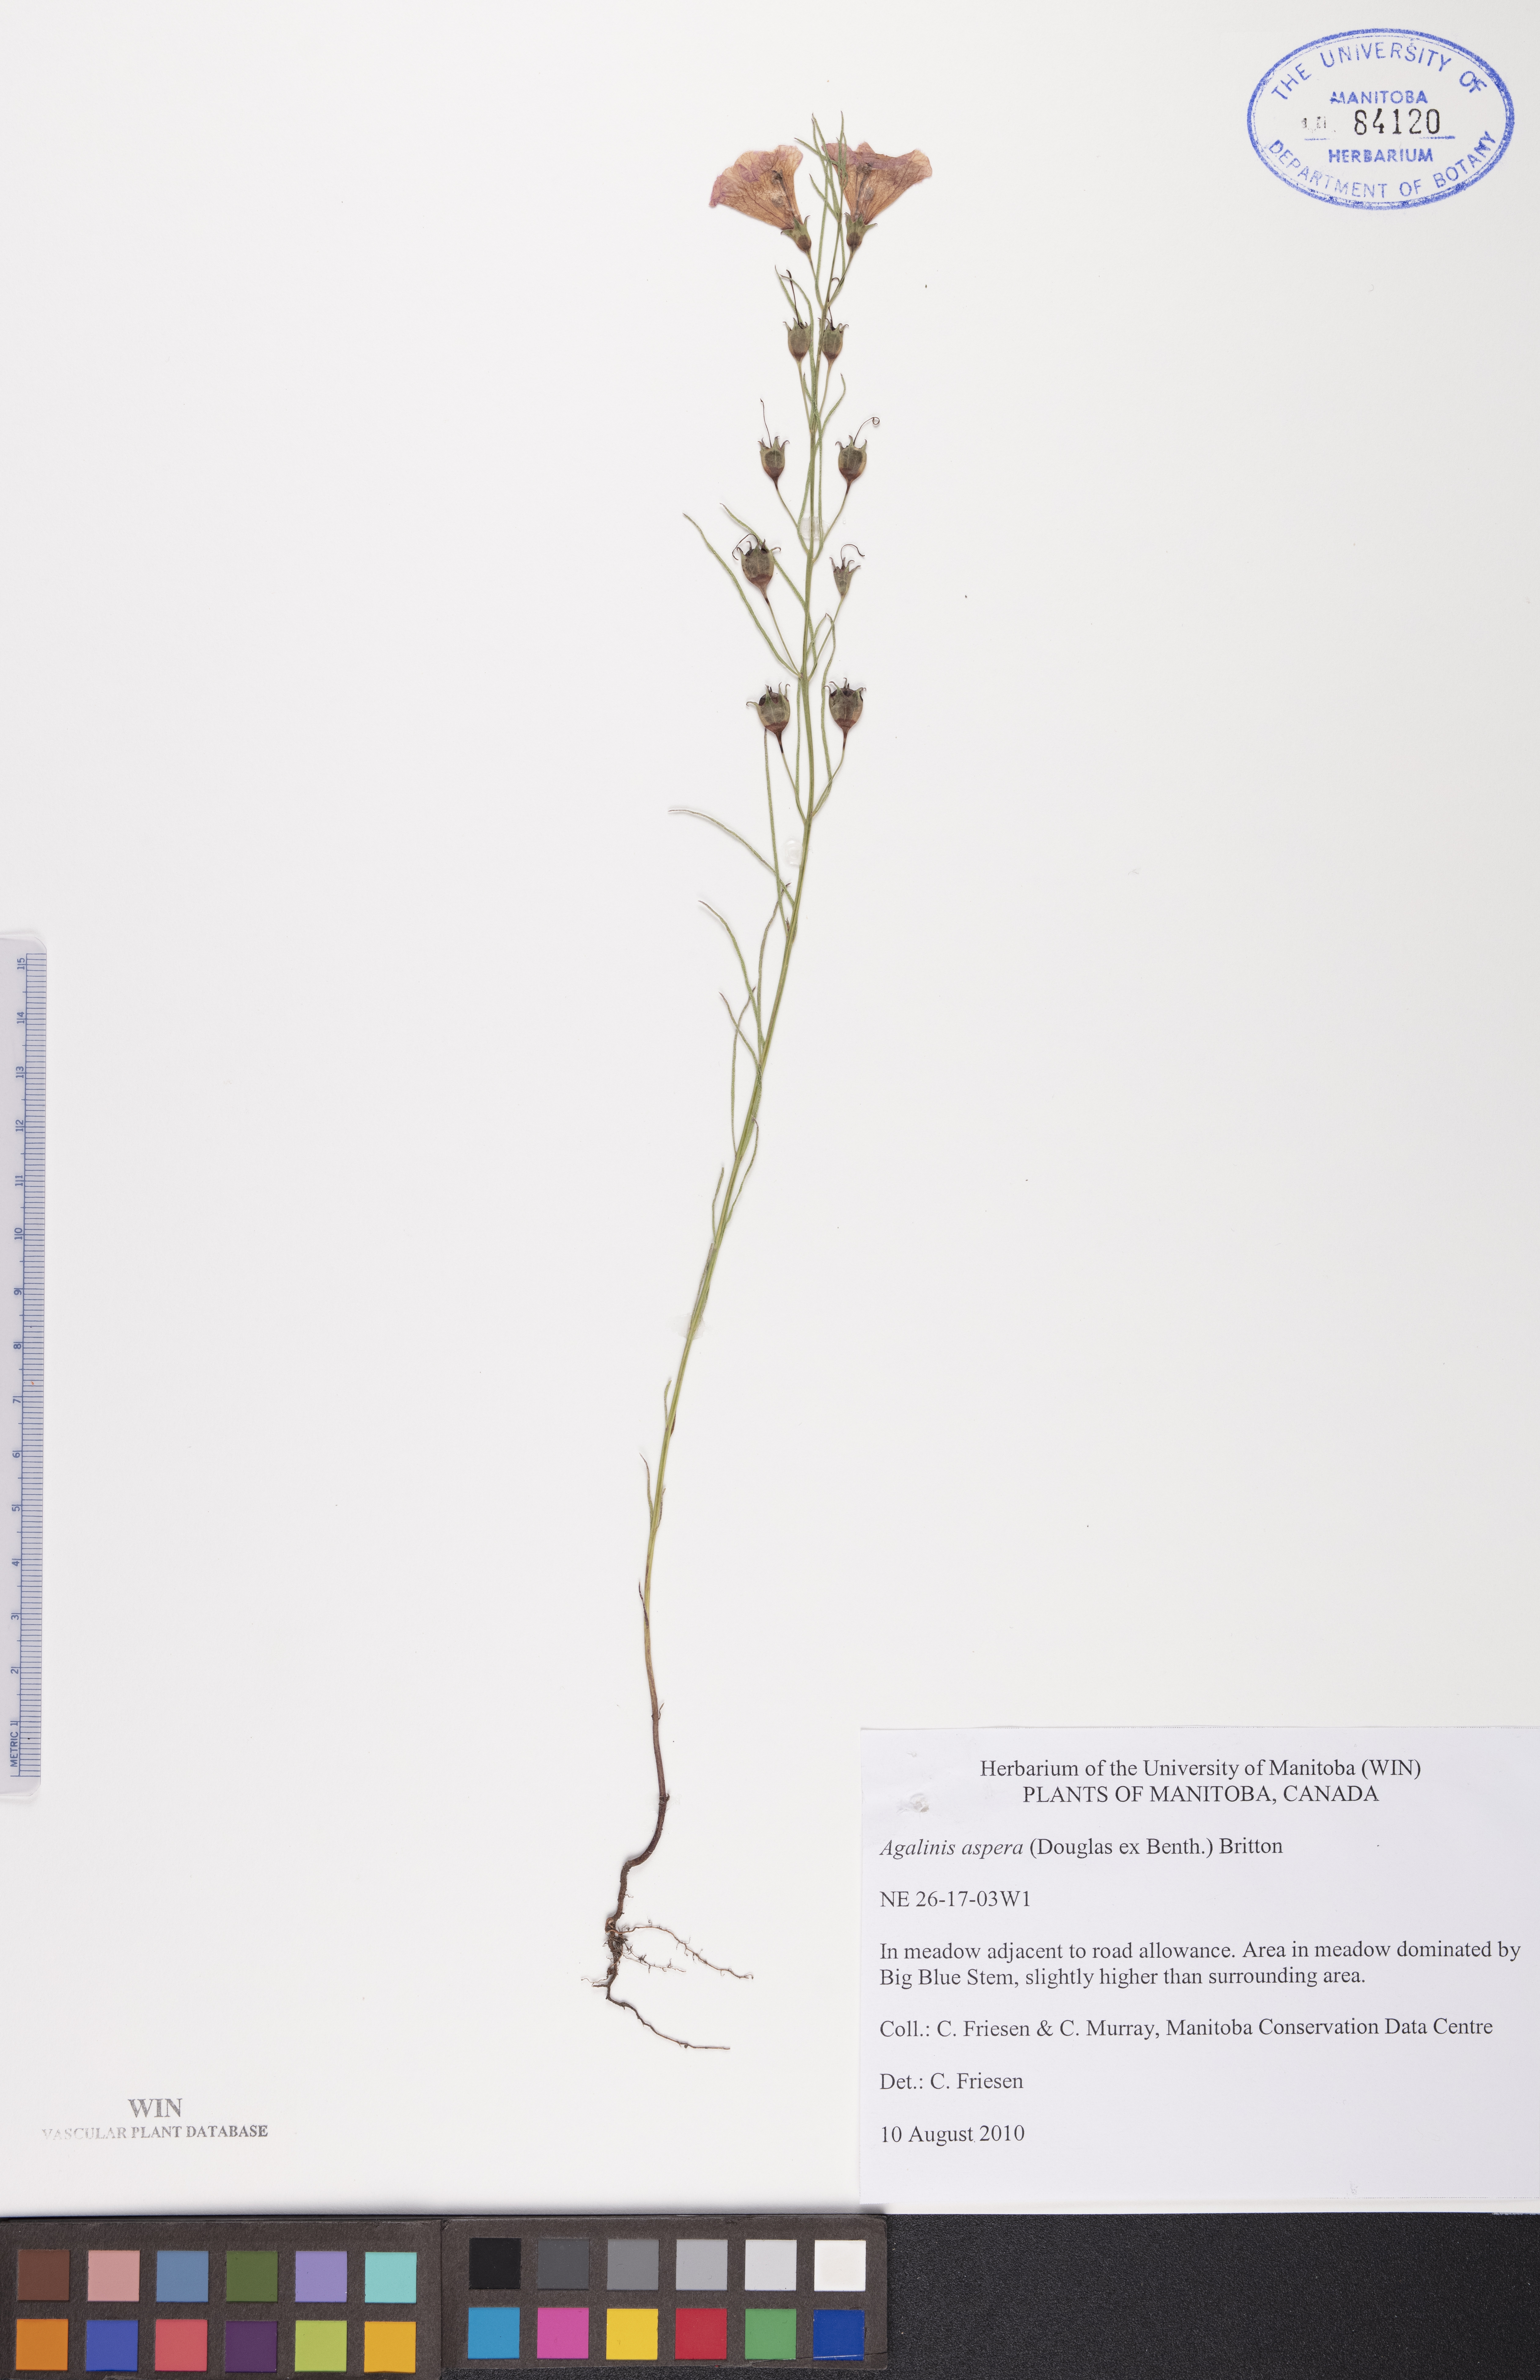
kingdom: Plantae
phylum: Tracheophyta
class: Magnoliopsida
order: Lamiales
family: Orobanchaceae
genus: Agalinis
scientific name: Agalinis aspera
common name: Rough agalinis
